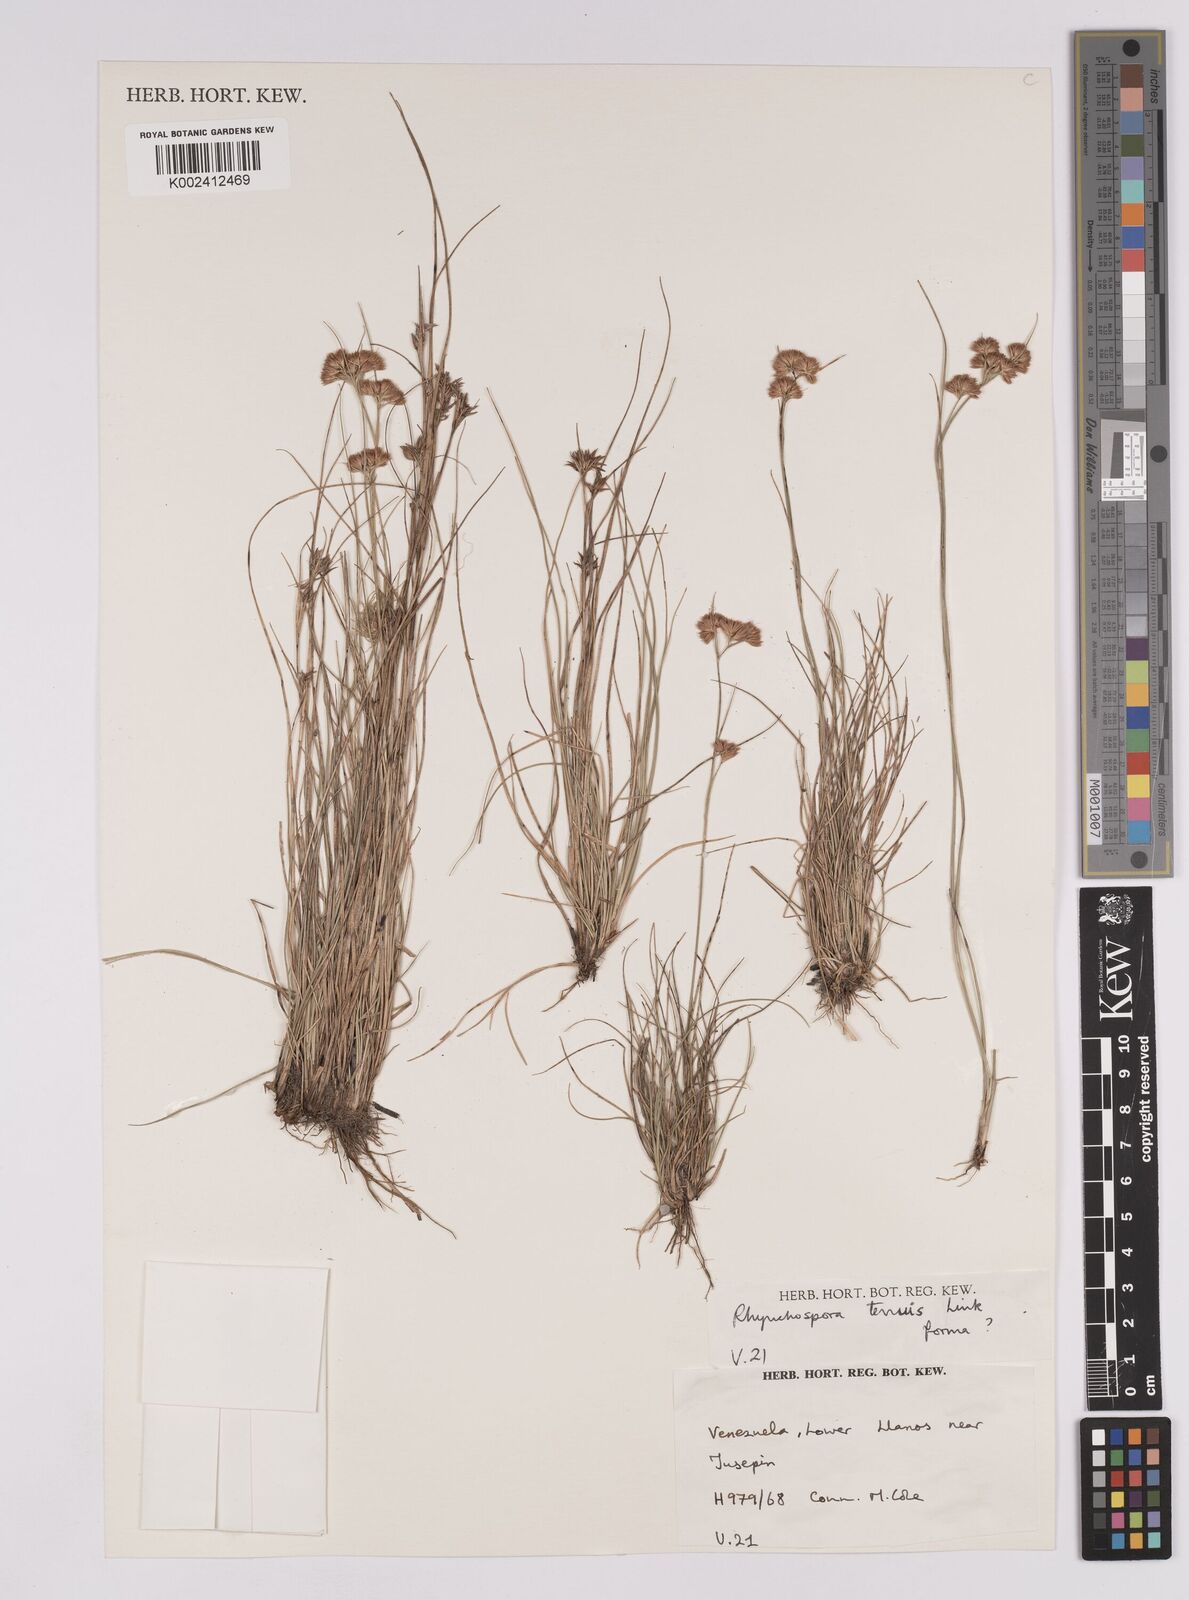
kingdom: Plantae
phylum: Tracheophyta
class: Liliopsida
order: Poales
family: Cyperaceae
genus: Rhynchospora
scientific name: Rhynchospora tenuis
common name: Quill beaksedge
